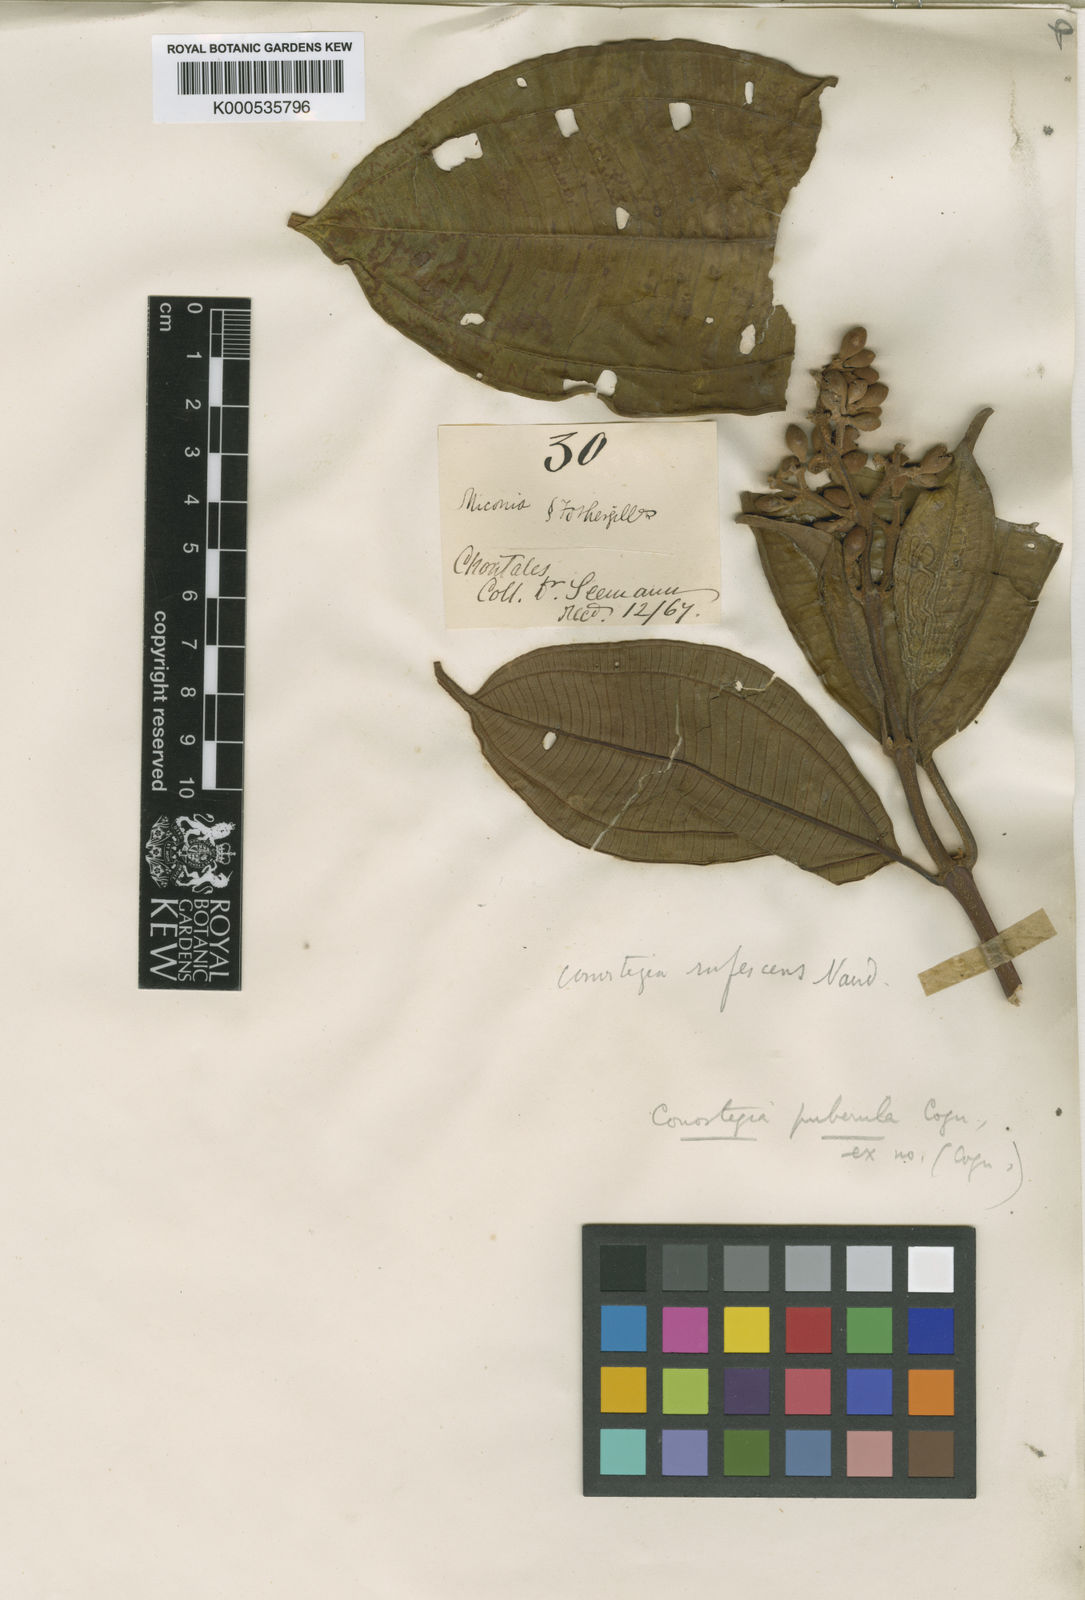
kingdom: Plantae
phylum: Tracheophyta
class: Magnoliopsida
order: Myrtales
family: Melastomataceae
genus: Miconia
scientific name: Miconia conorufescens
